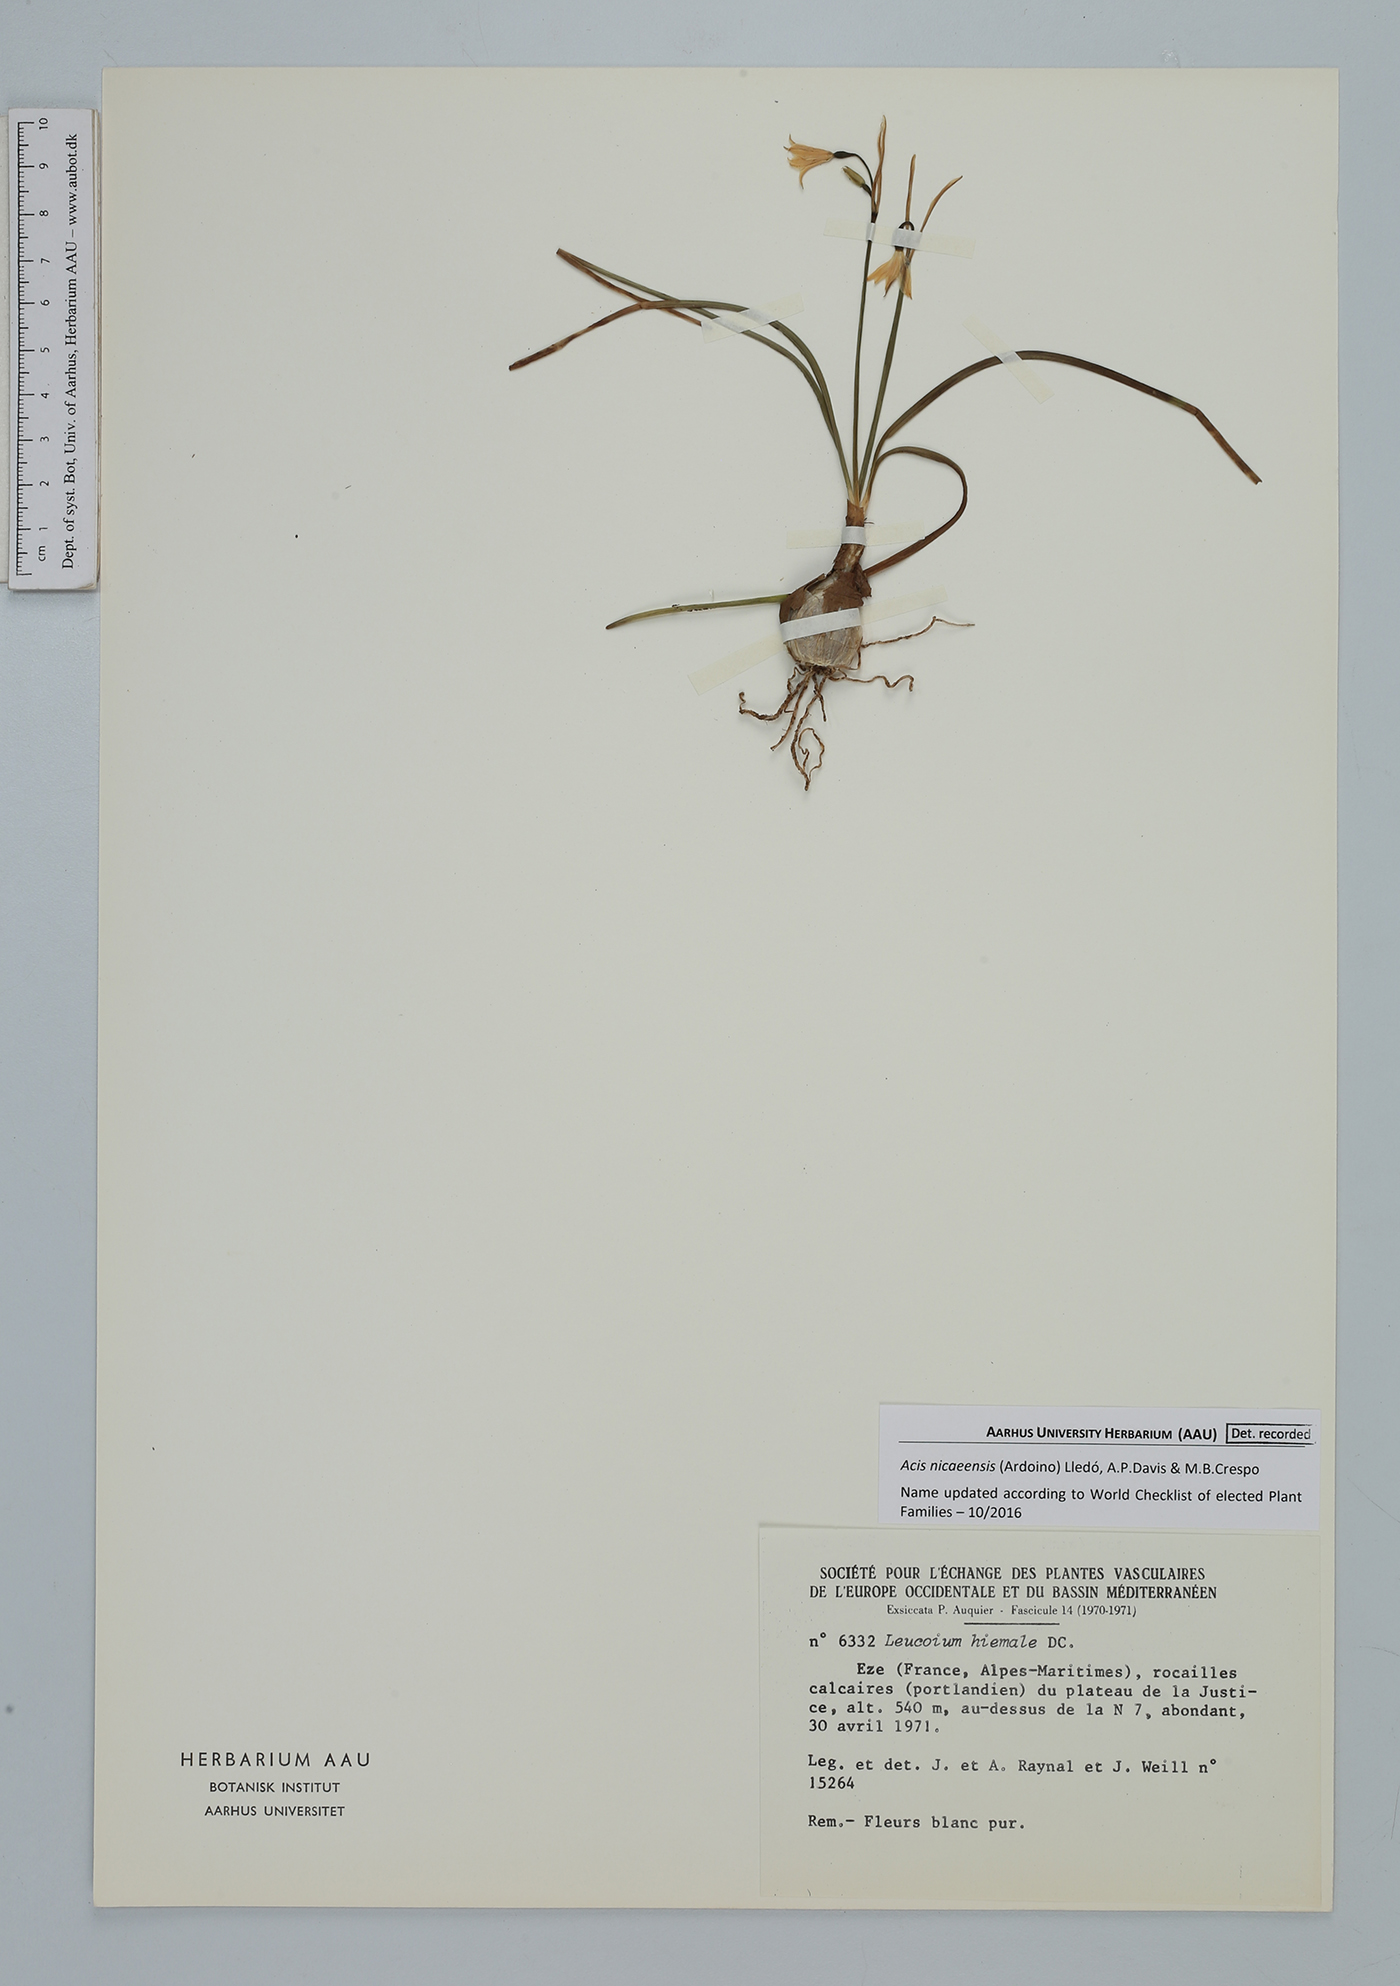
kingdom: Plantae
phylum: Tracheophyta
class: Liliopsida
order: Asparagales
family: Amaryllidaceae
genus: Acis
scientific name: Acis nicaeensis
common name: French snowflake
